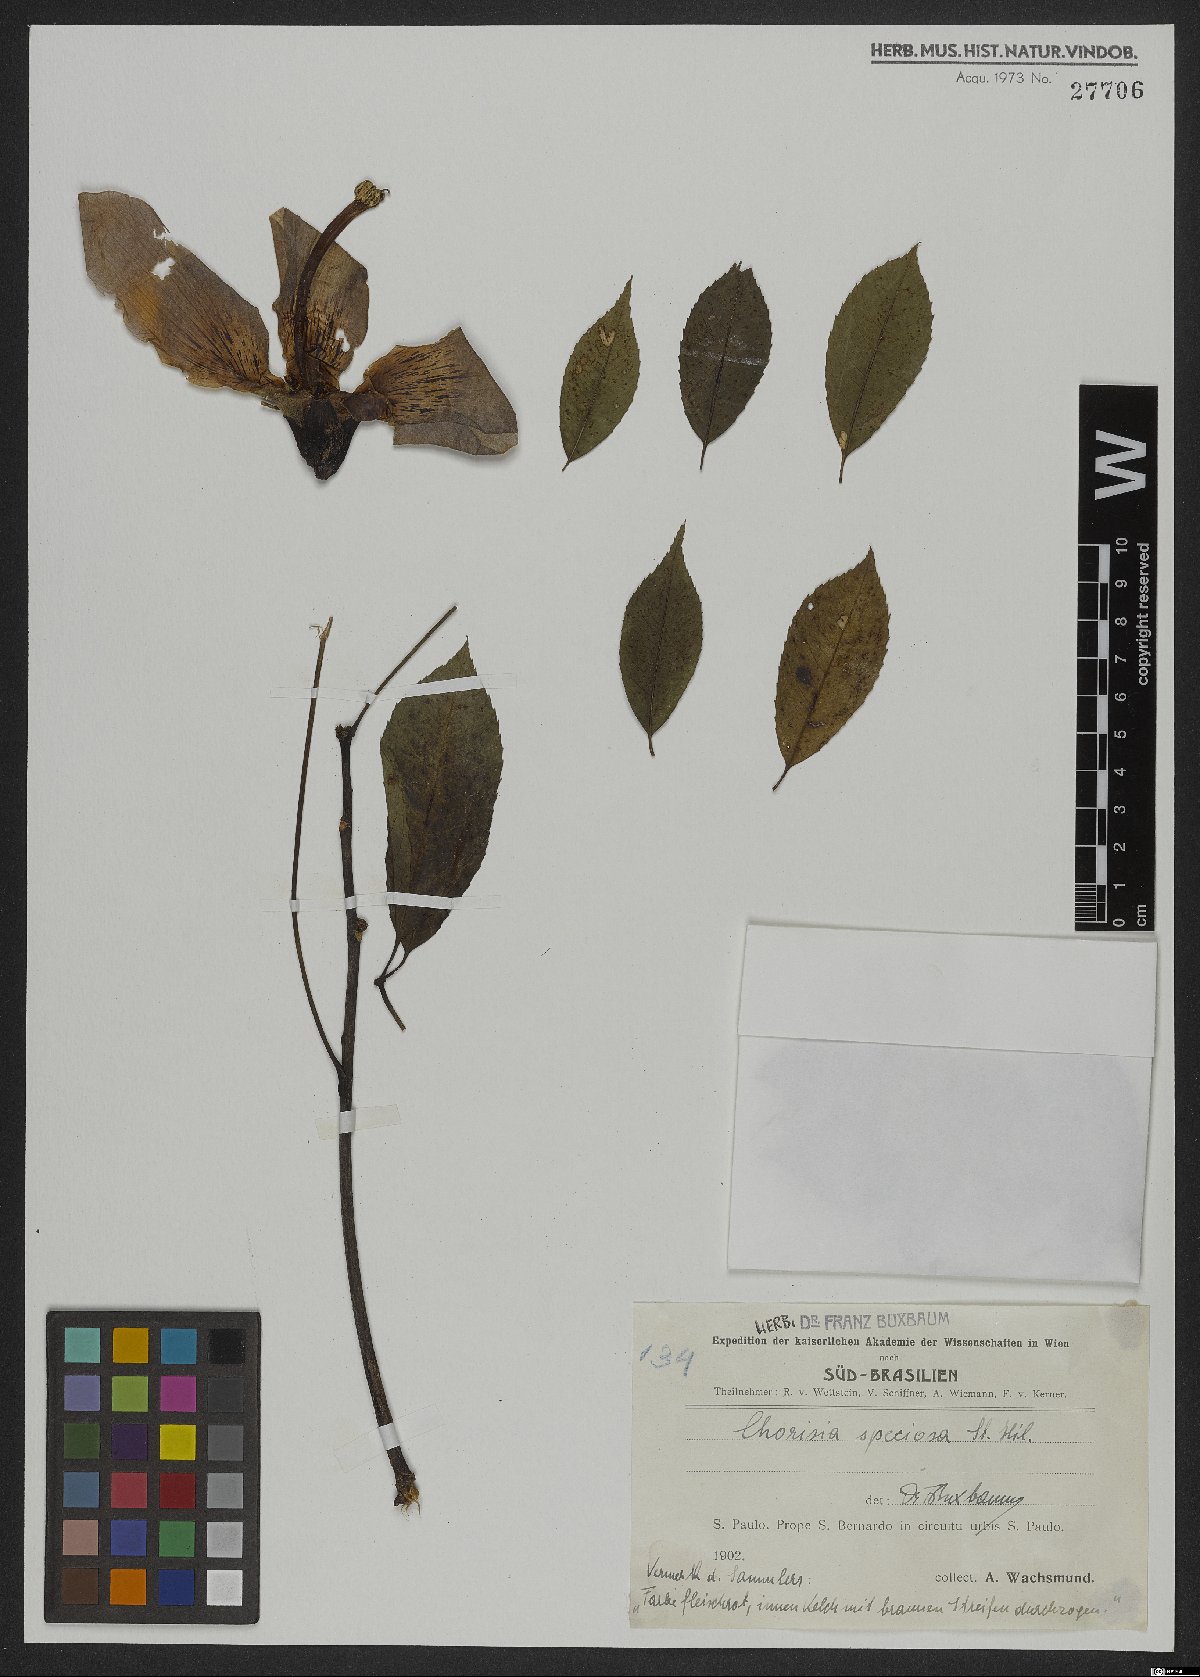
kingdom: Plantae
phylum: Tracheophyta
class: Magnoliopsida
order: Malvales
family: Malvaceae
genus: Ceiba
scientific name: Ceiba speciosa
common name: Silk-floss tree
